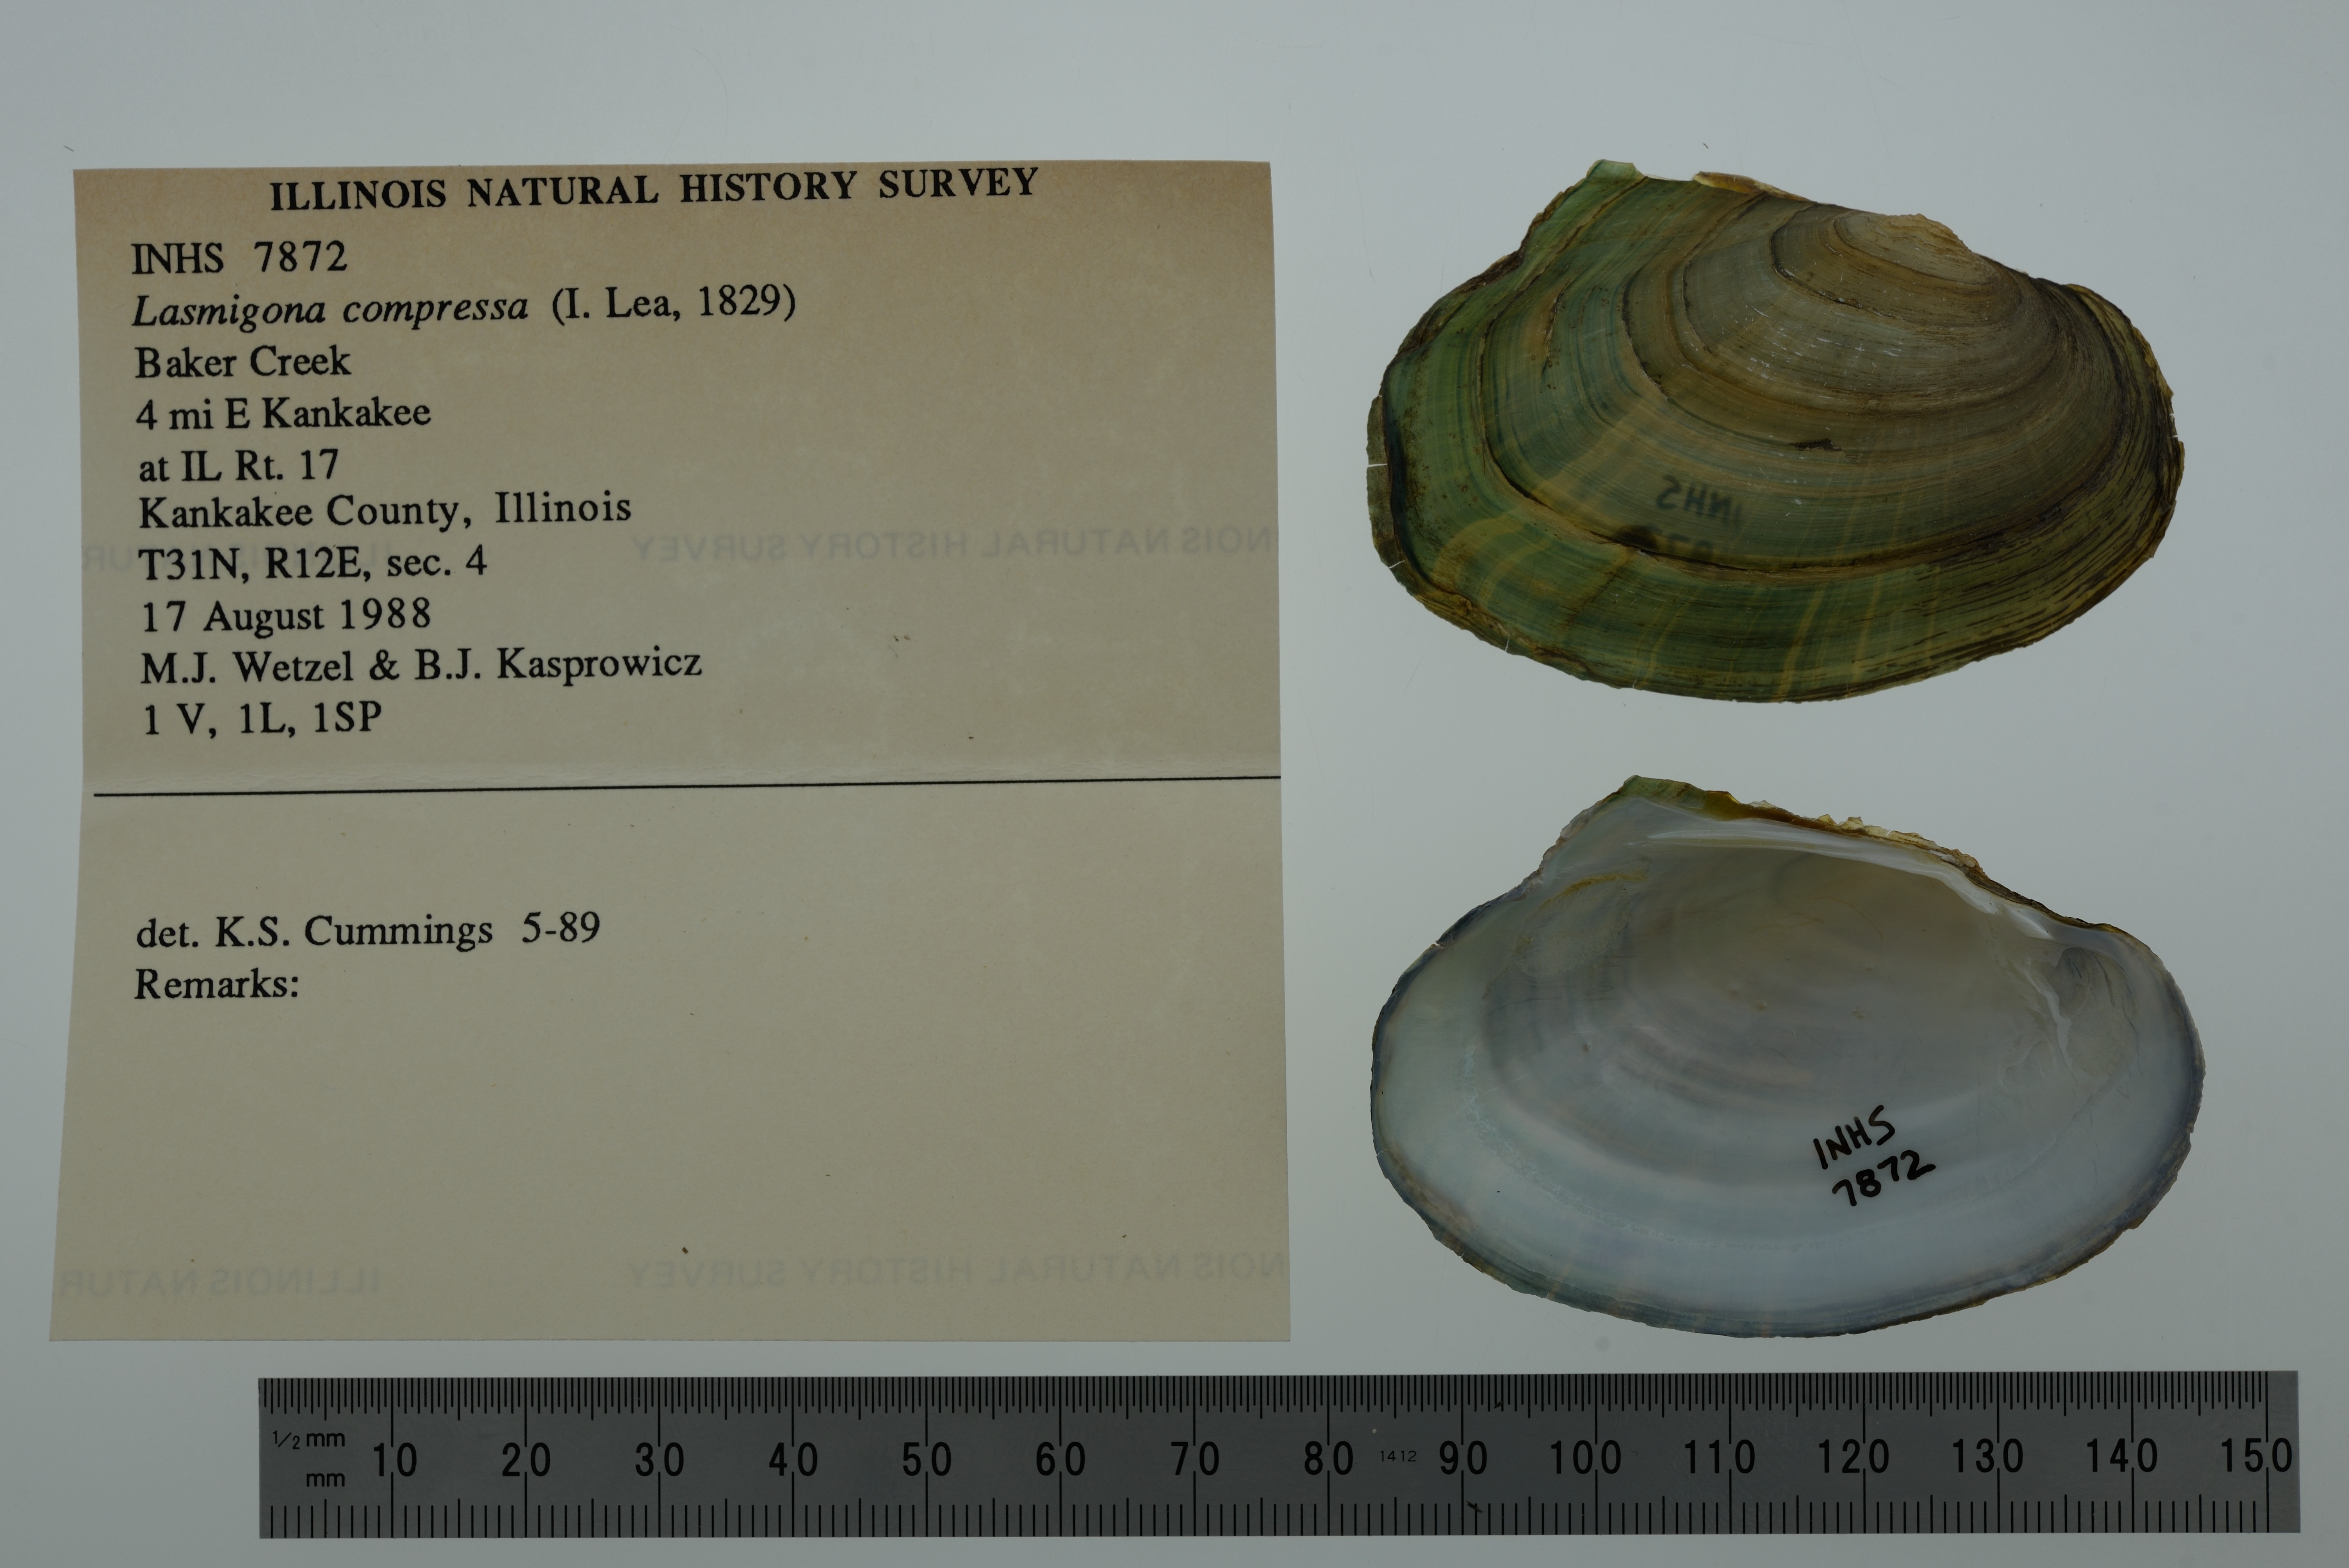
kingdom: Animalia
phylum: Mollusca
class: Bivalvia
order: Unionida
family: Unionidae
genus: Lasmigona
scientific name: Lasmigona compressa
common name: Creek heelsplitter
